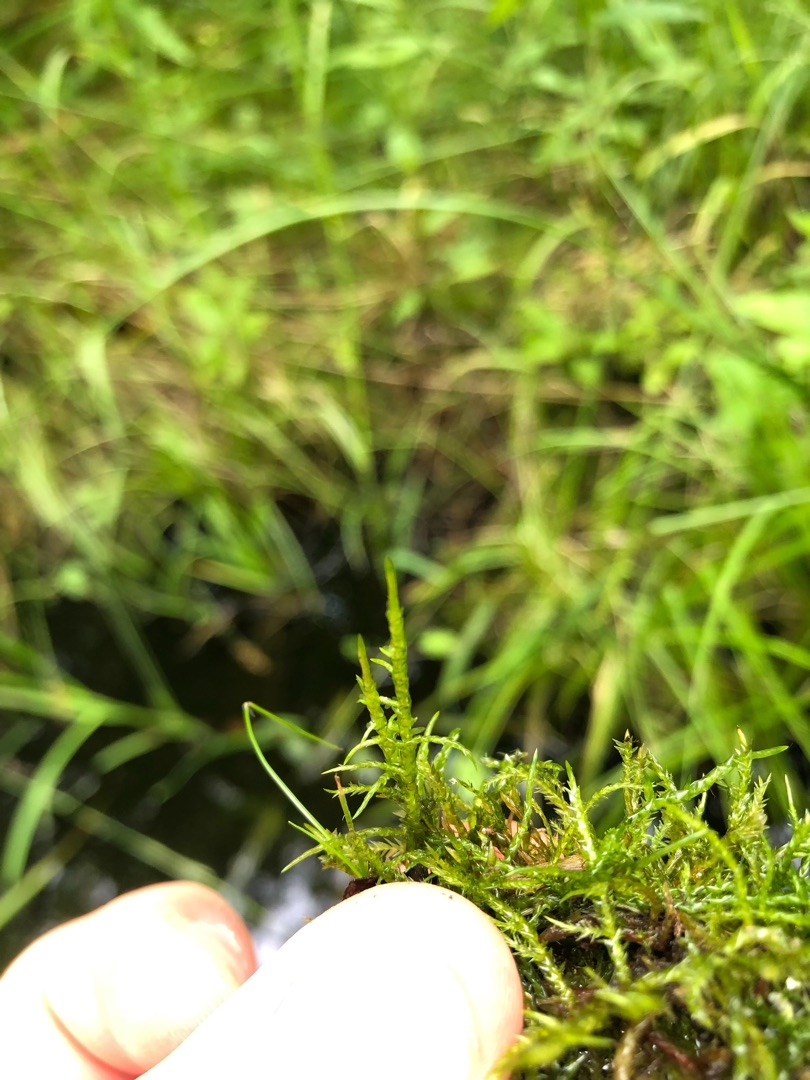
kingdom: Plantae
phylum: Bryophyta
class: Bryopsida
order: Hypnales
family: Pylaisiaceae
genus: Calliergonella
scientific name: Calliergonella cuspidata
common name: Spids spydmos
